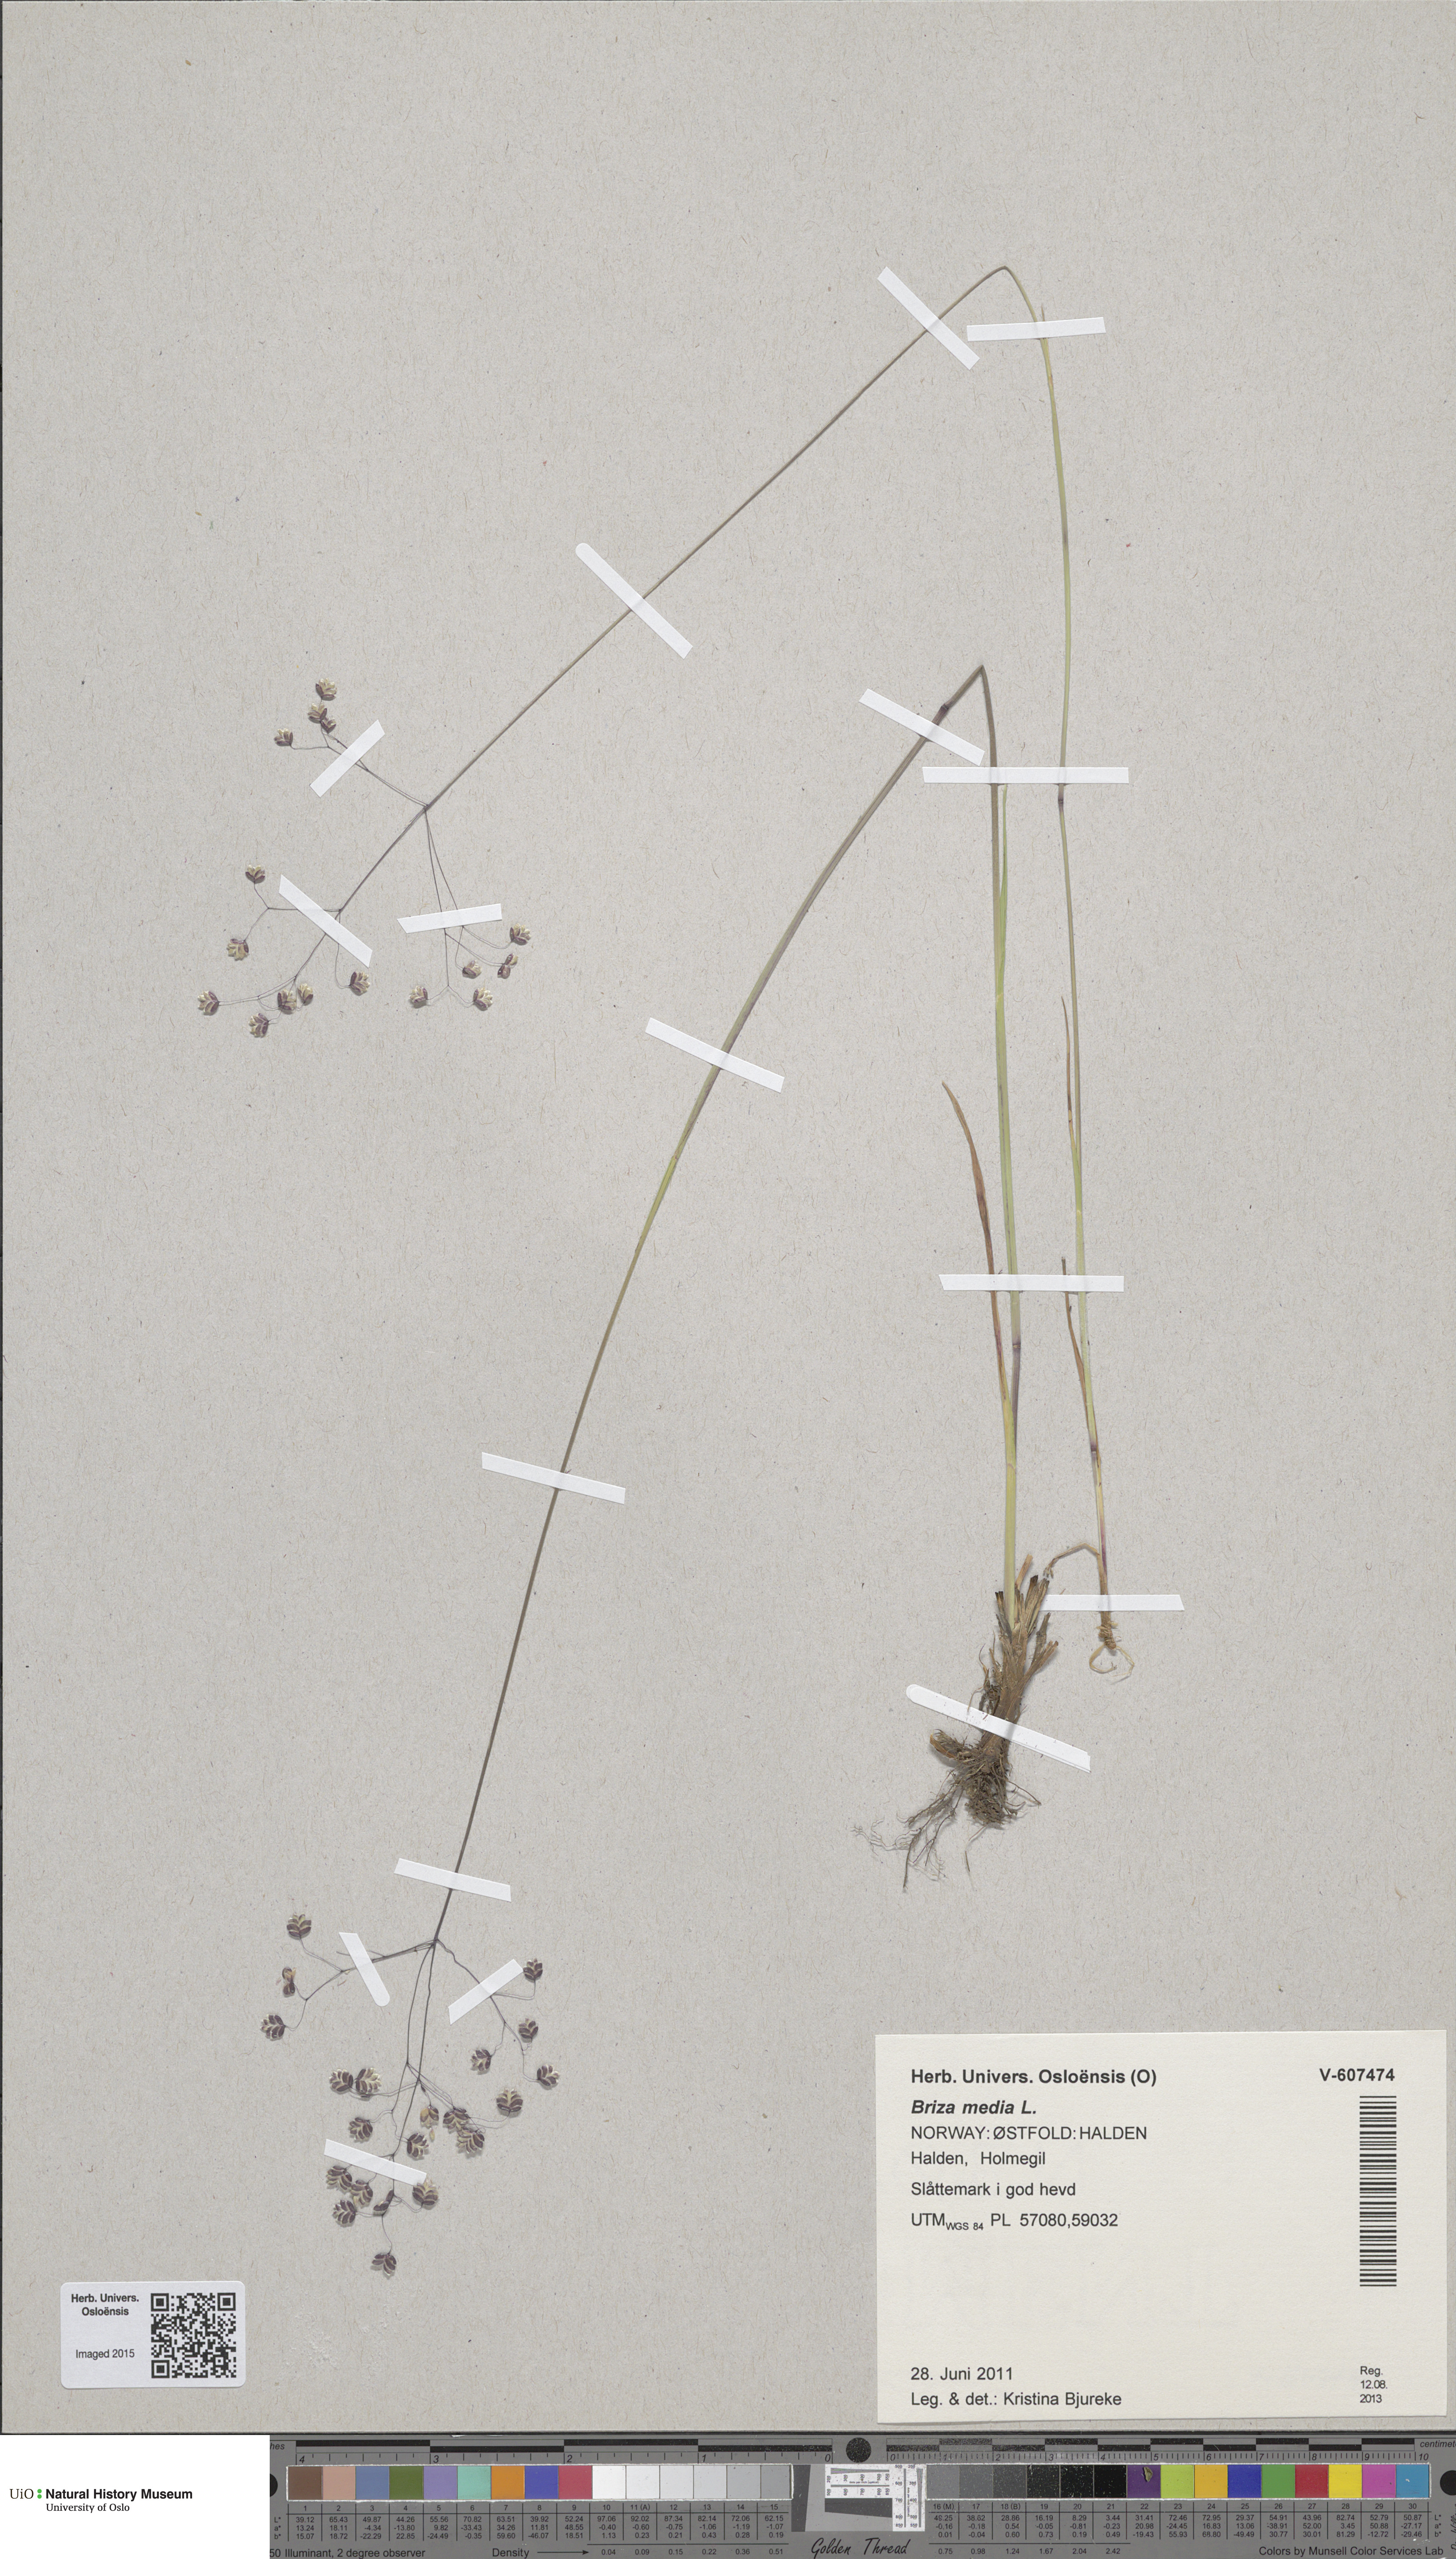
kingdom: Plantae
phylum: Tracheophyta
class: Liliopsida
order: Poales
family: Poaceae
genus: Briza
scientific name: Briza media
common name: Quaking grass
